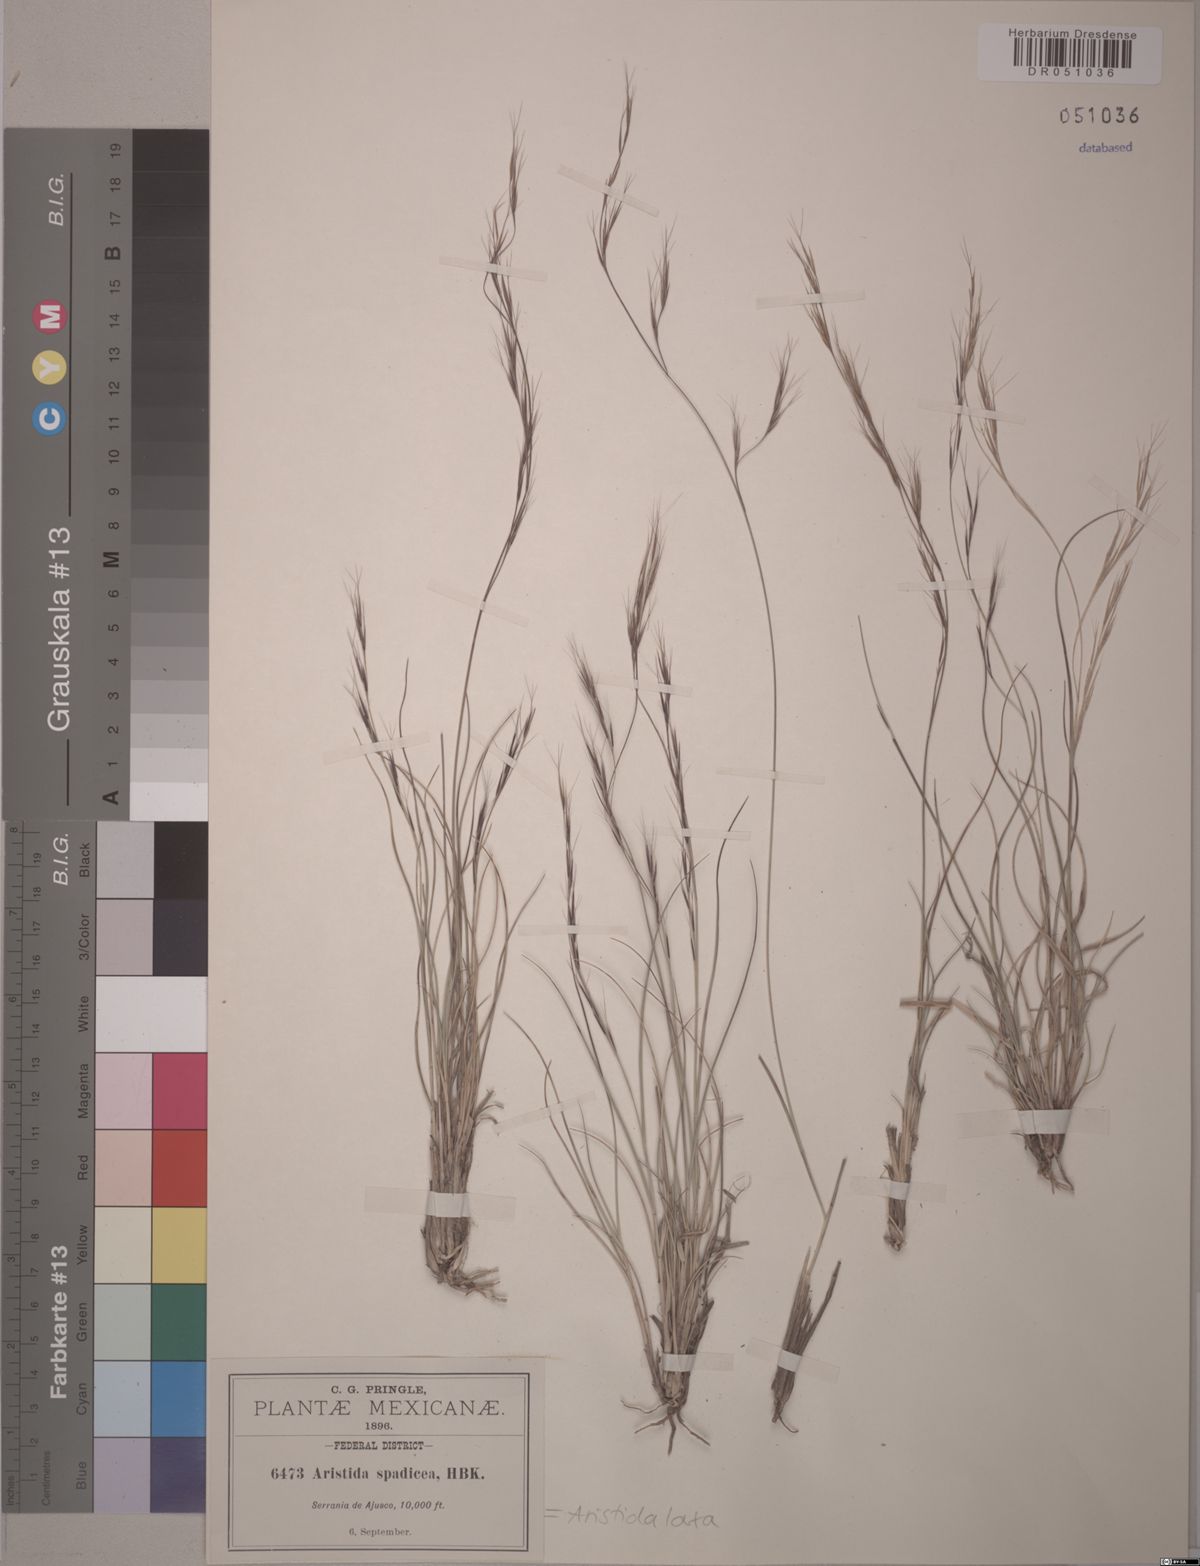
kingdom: Plantae
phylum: Tracheophyta
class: Liliopsida
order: Poales
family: Poaceae
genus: Aristida
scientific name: Aristida laxa
